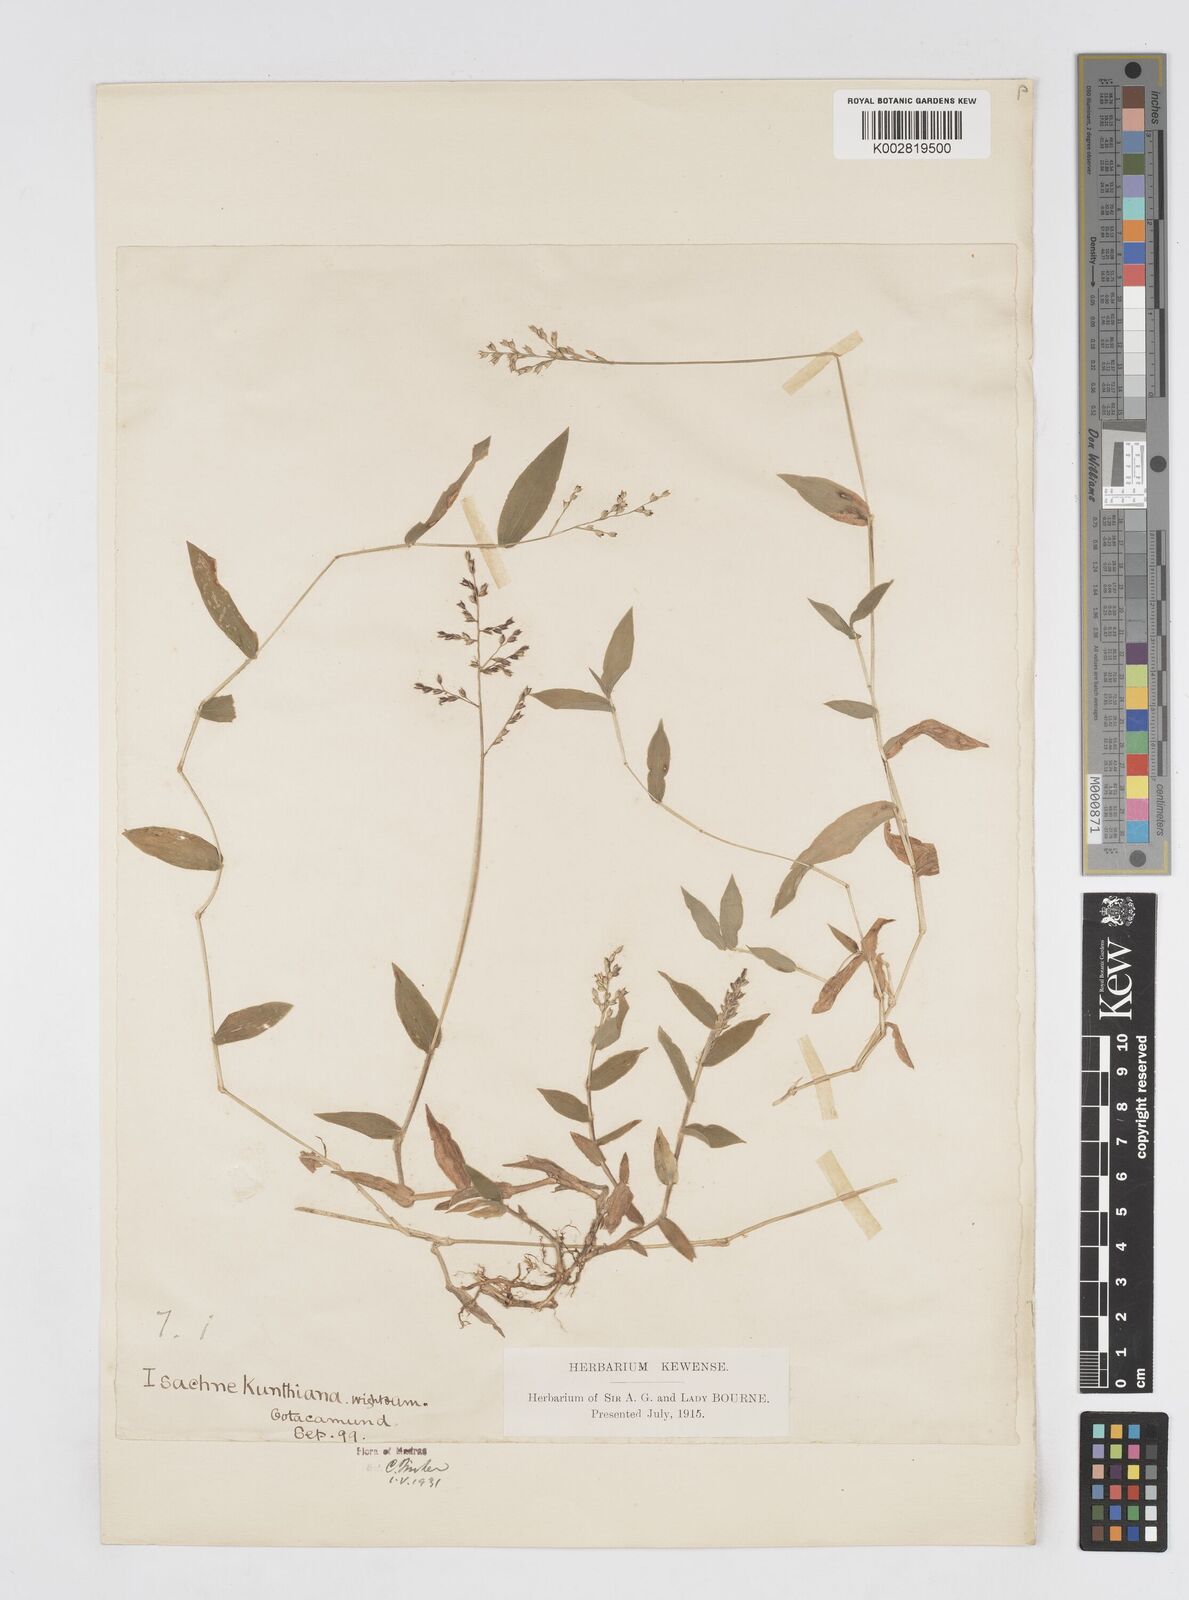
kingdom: Plantae
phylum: Tracheophyta
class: Liliopsida
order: Poales
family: Poaceae
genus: Isachne
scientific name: Isachne kunthiana
